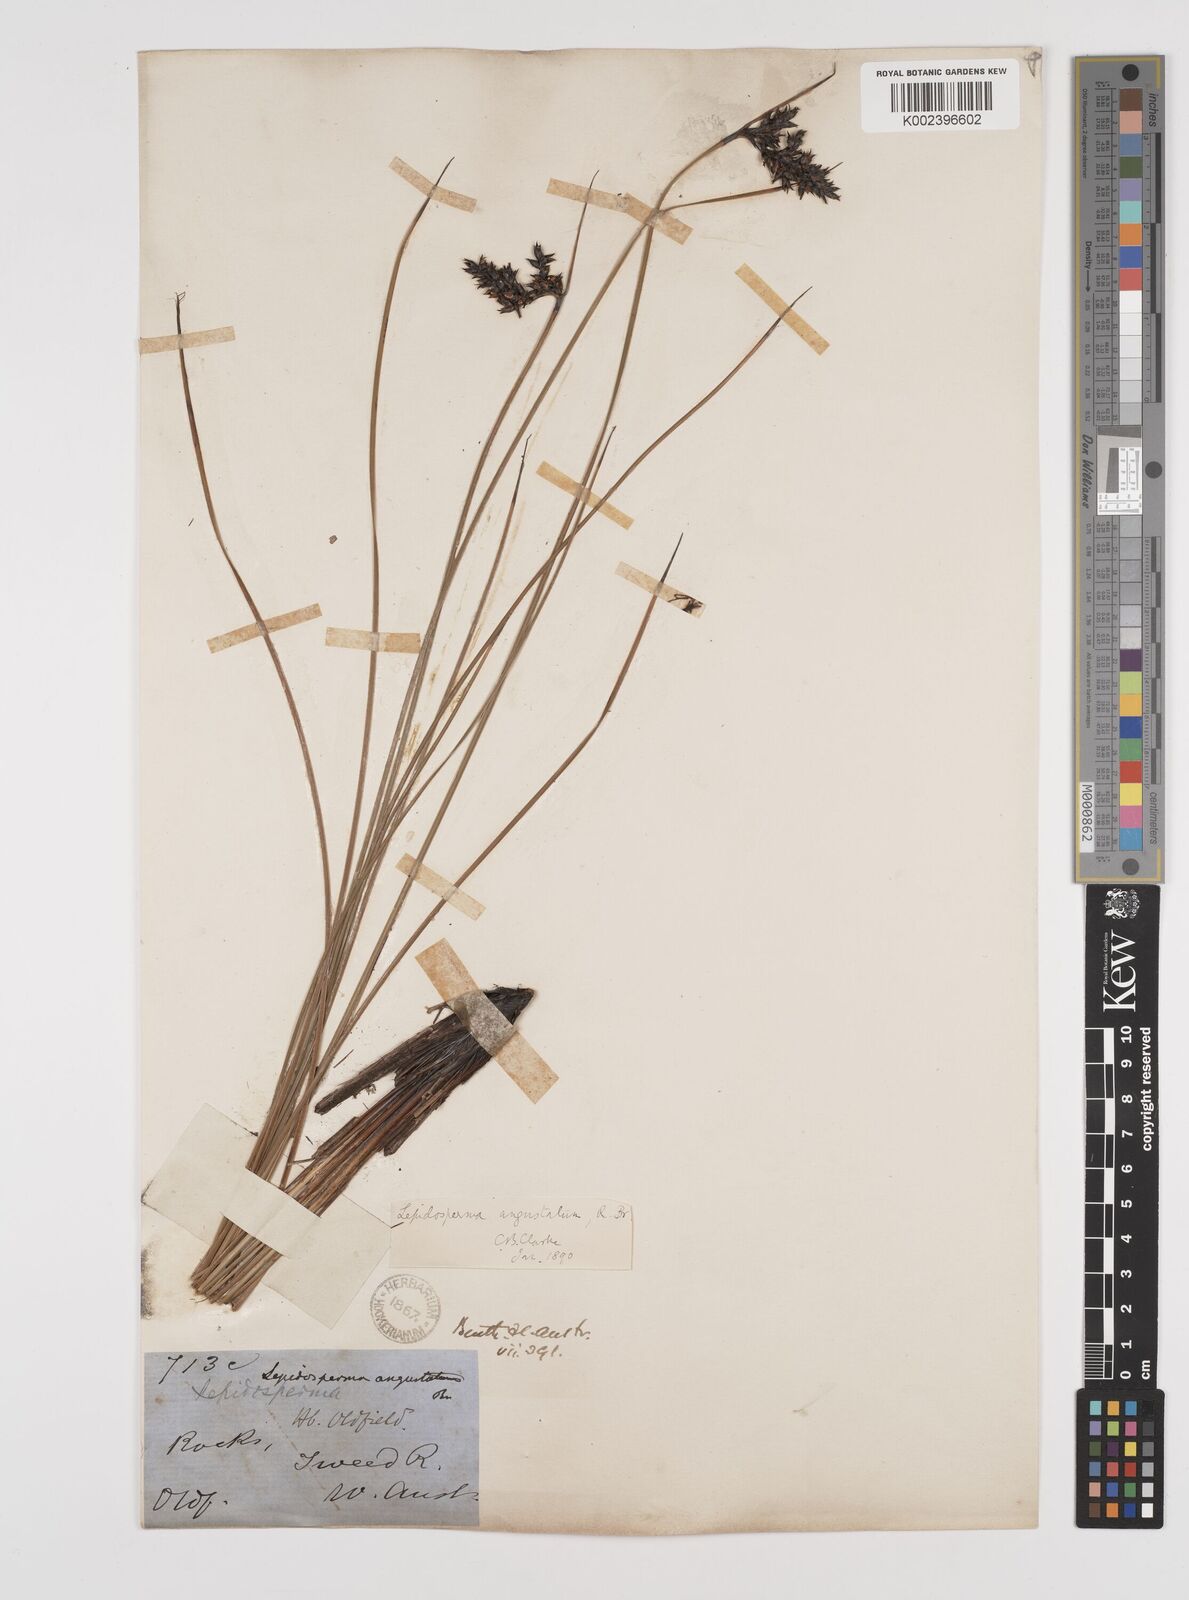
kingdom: Plantae
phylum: Tracheophyta
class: Liliopsida
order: Poales
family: Cyperaceae
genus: Lepidosperma
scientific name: Lepidosperma angustatum
